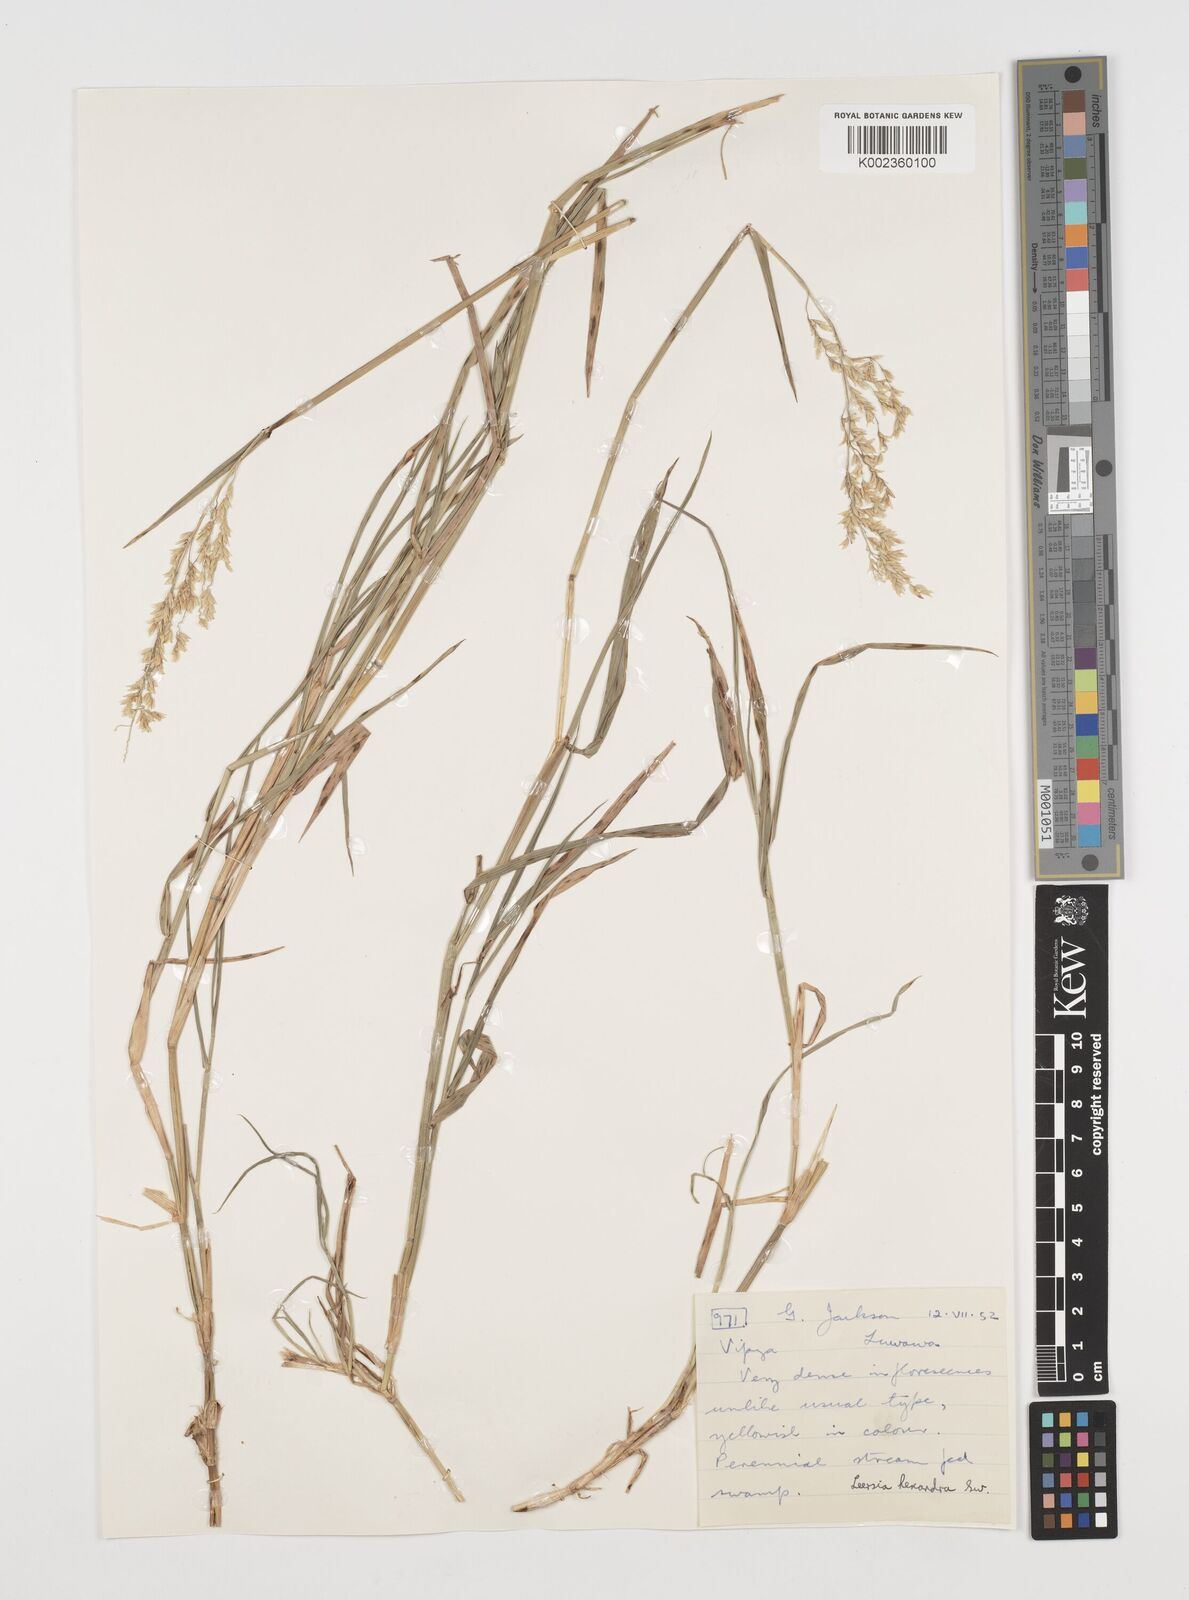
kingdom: Plantae
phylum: Tracheophyta
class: Liliopsida
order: Poales
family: Poaceae
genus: Leersia
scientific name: Leersia hexandra
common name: Southern cut grass
